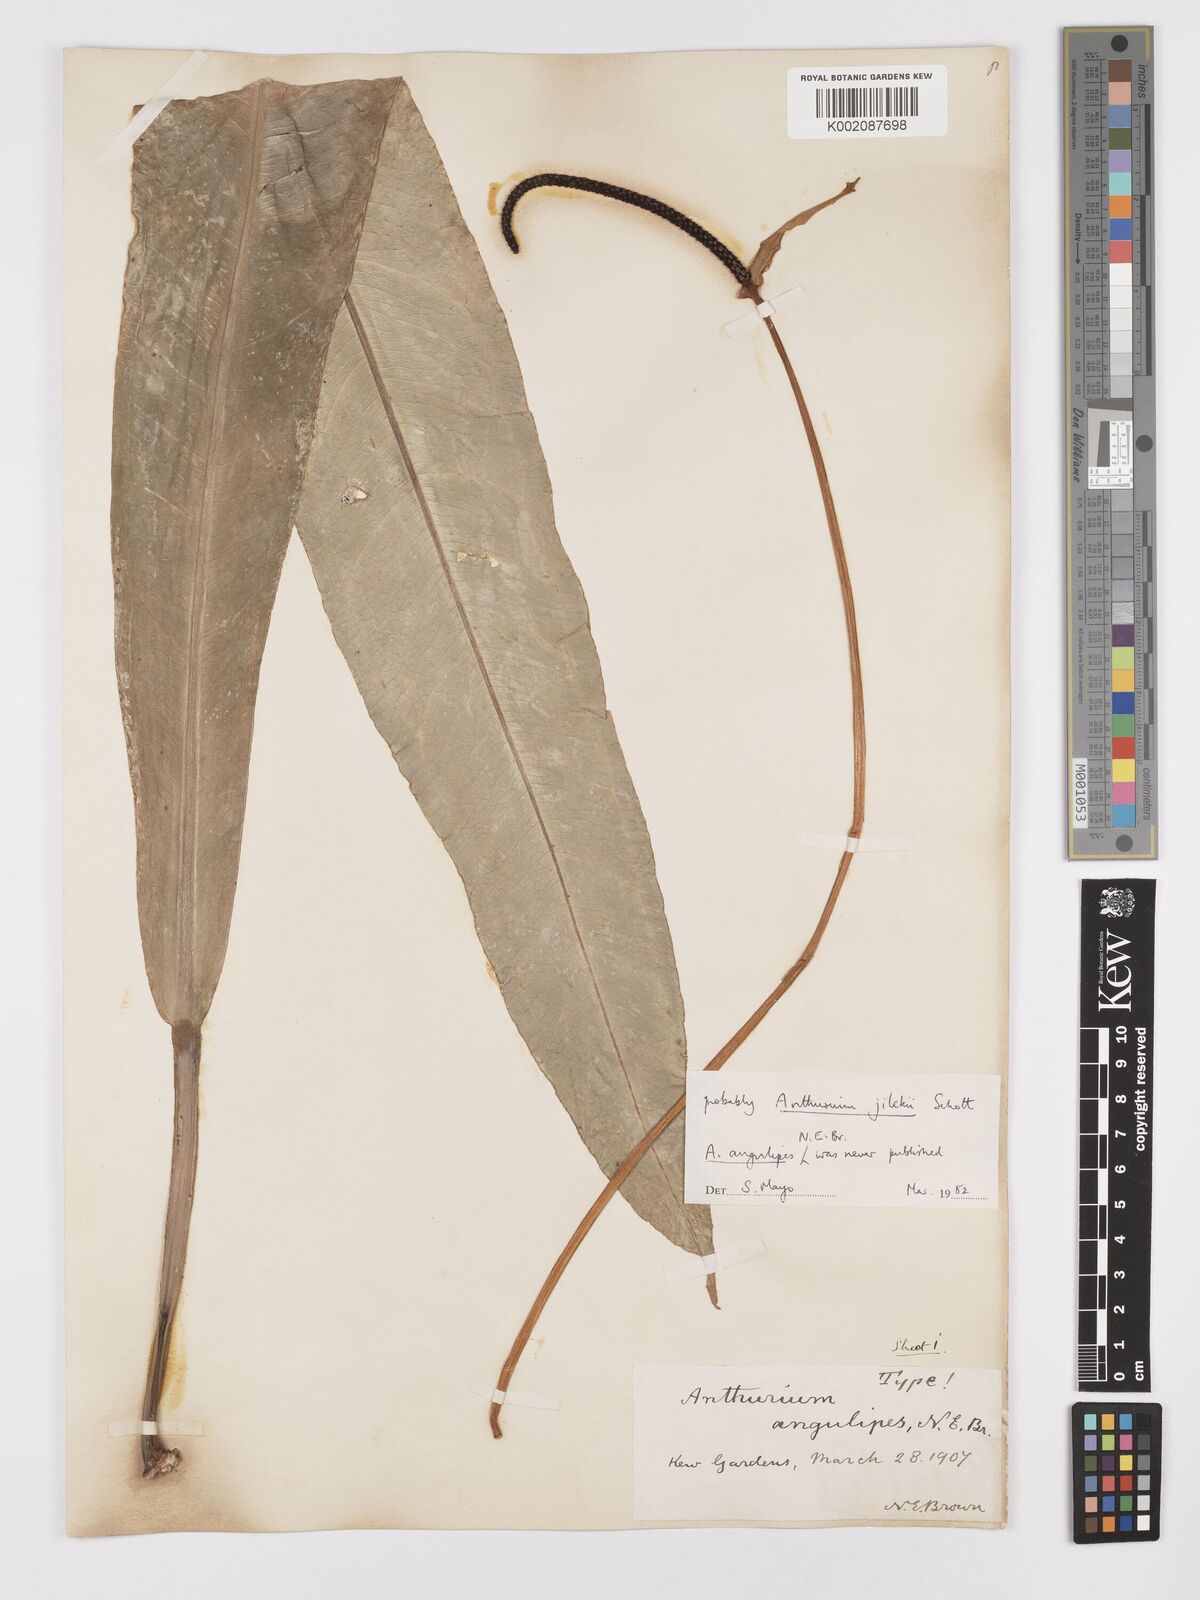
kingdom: Plantae
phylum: Tracheophyta
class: Liliopsida
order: Alismatales
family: Araceae
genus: Anthurium
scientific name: Anthurium jilekii
